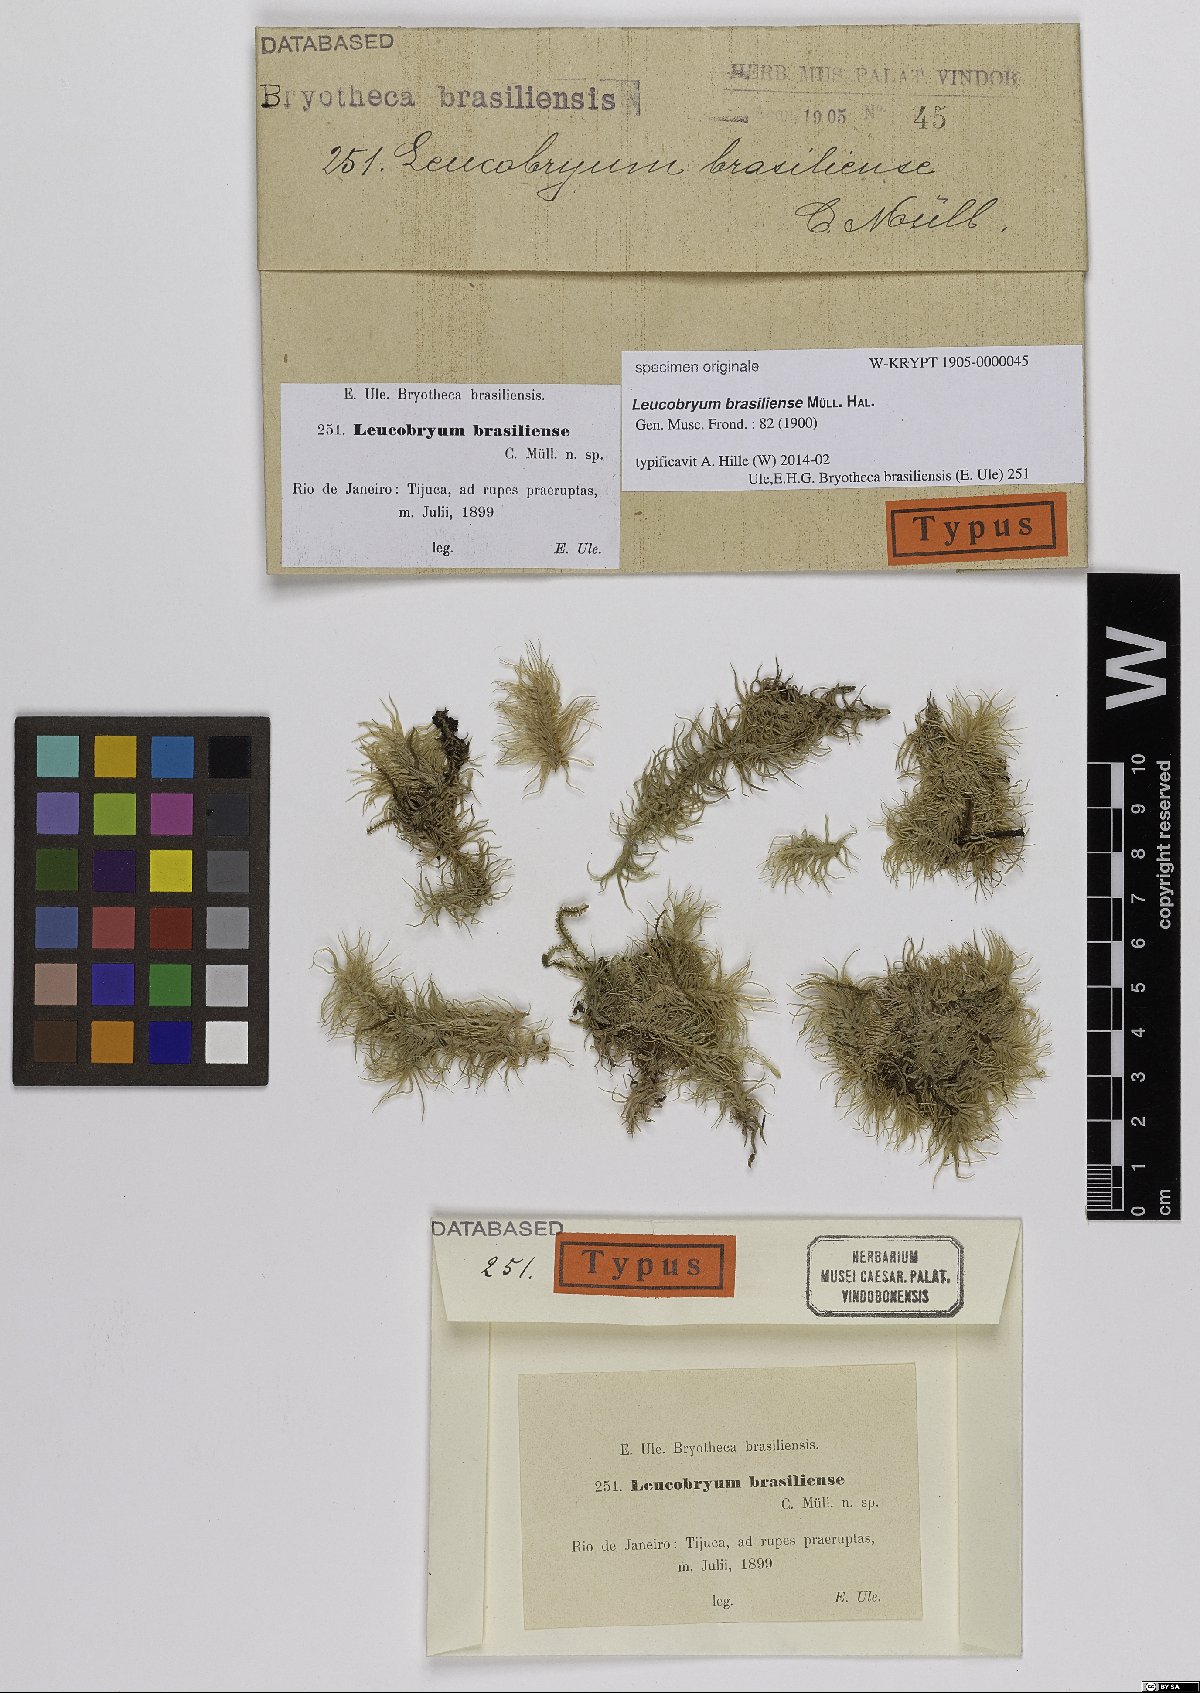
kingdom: Plantae
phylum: Bryophyta
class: Bryopsida
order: Dicranales
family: Leucobryaceae
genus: Leucobryum
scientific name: Leucobryum giganteum
